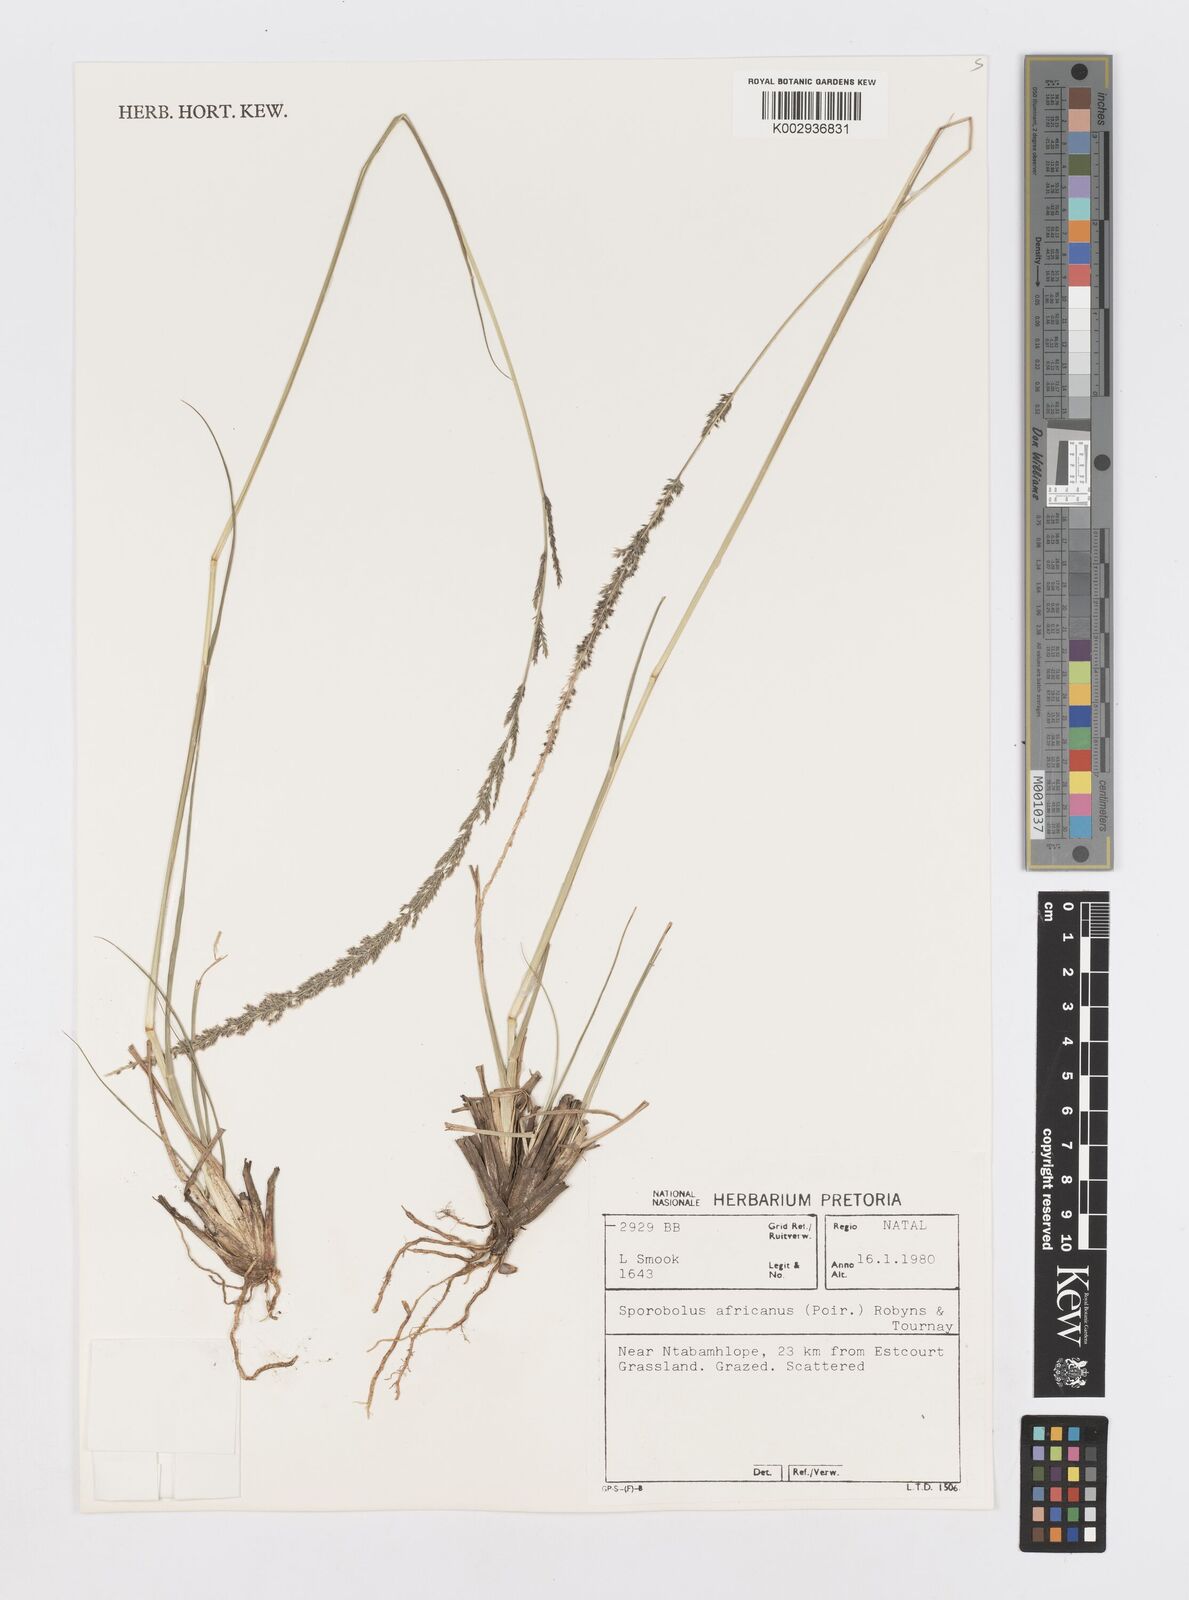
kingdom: Plantae
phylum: Tracheophyta
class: Liliopsida
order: Poales
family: Poaceae
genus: Sporobolus
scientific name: Sporobolus africanus
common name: African dropseed
